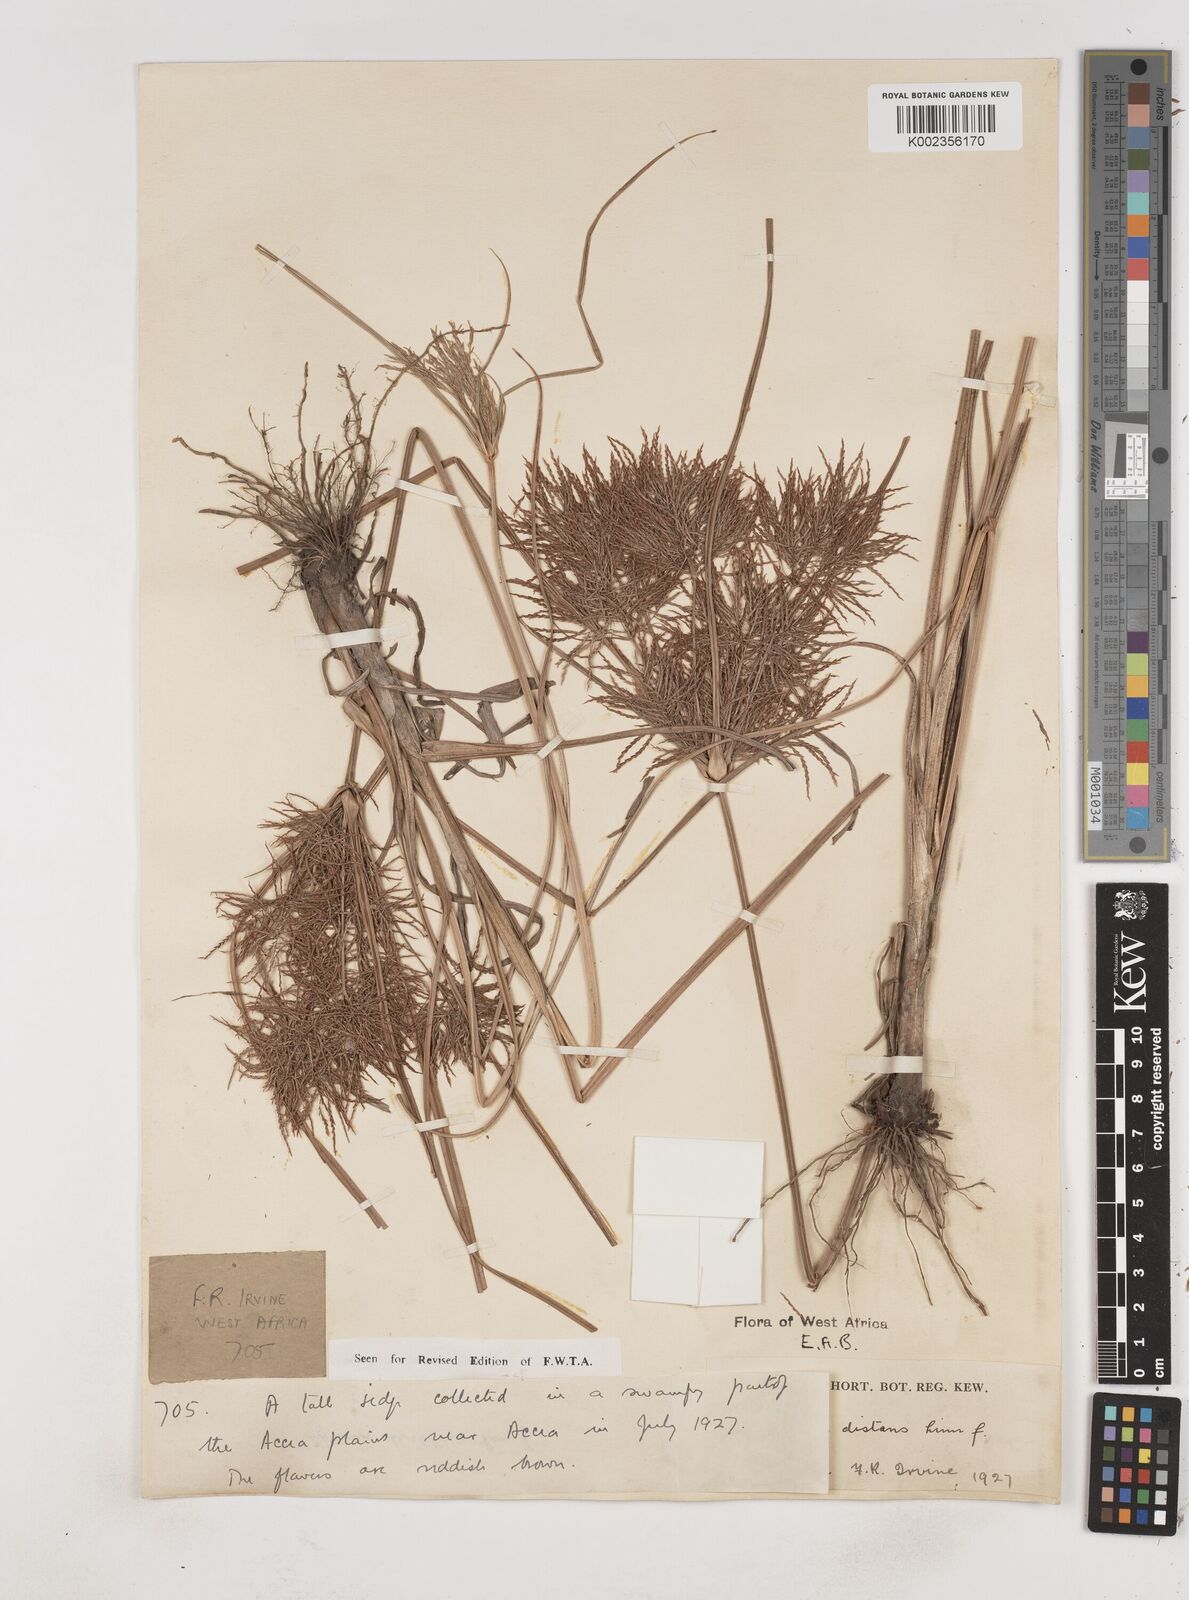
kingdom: Plantae
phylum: Tracheophyta
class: Liliopsida
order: Poales
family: Cyperaceae
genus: Cyperus
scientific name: Cyperus distans
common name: Slender cyperus
